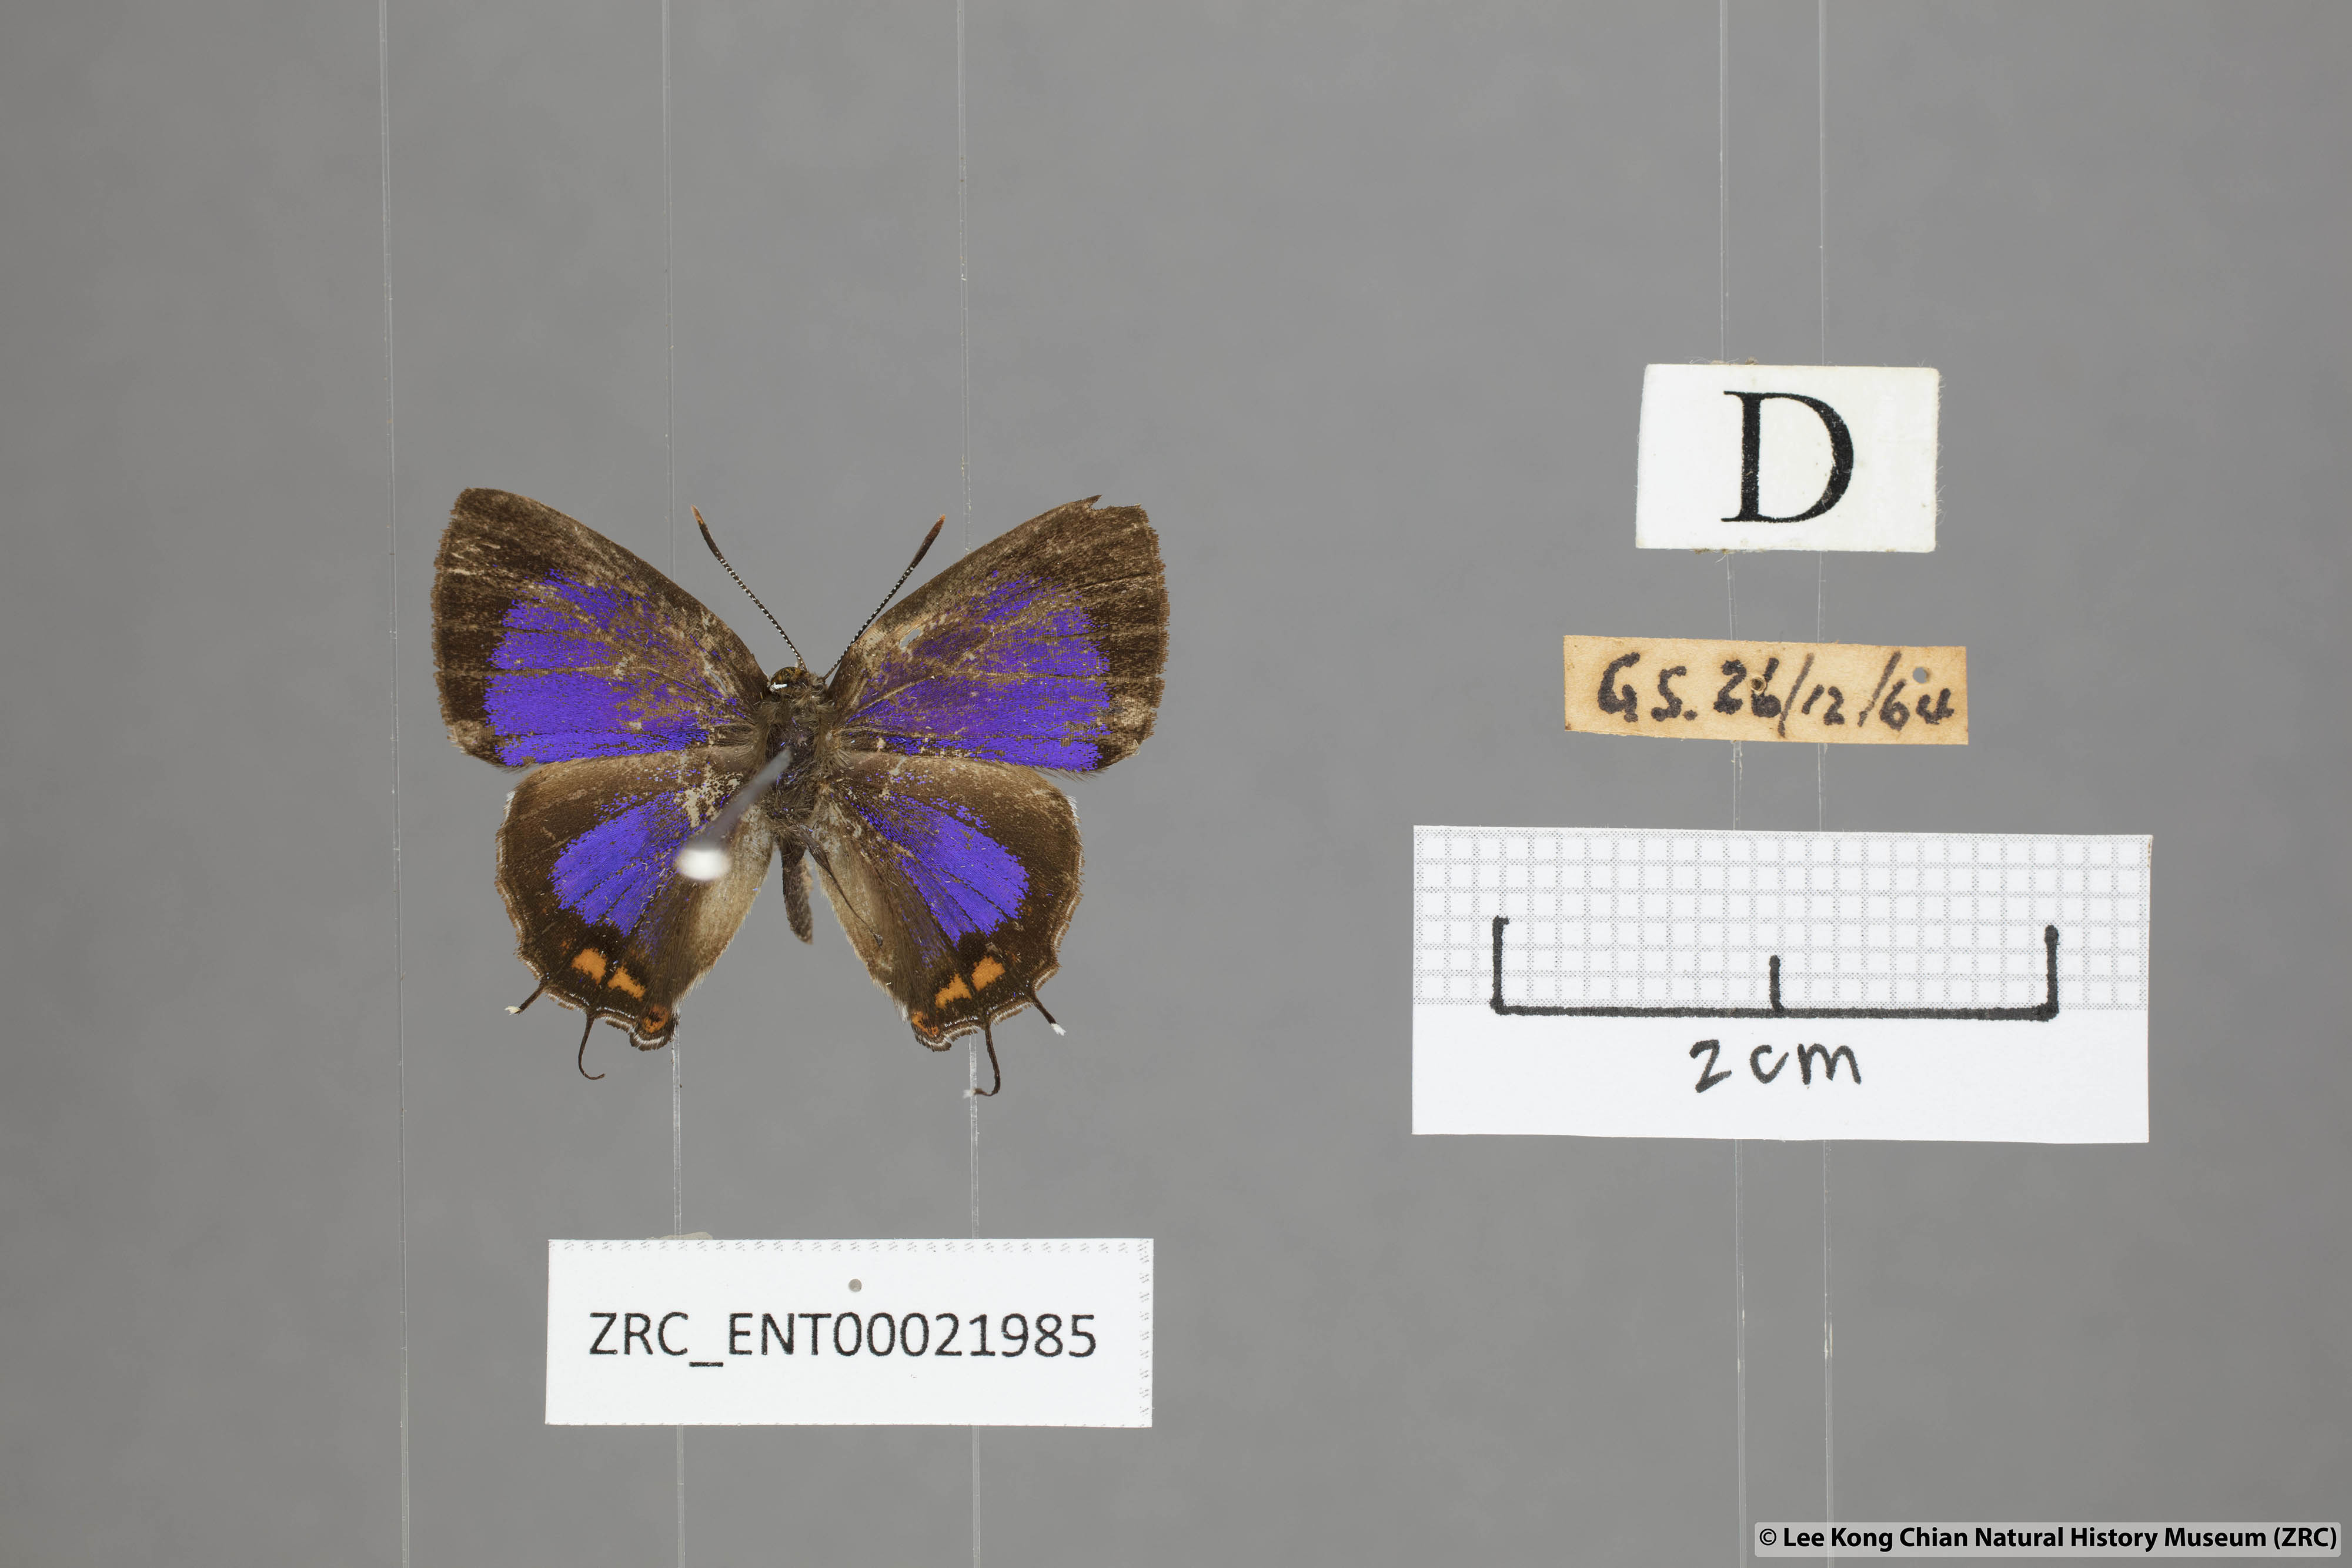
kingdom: Animalia
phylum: Arthropoda
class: Insecta
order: Lepidoptera
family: Lycaenidae
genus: Semanga
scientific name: Semanga superba
